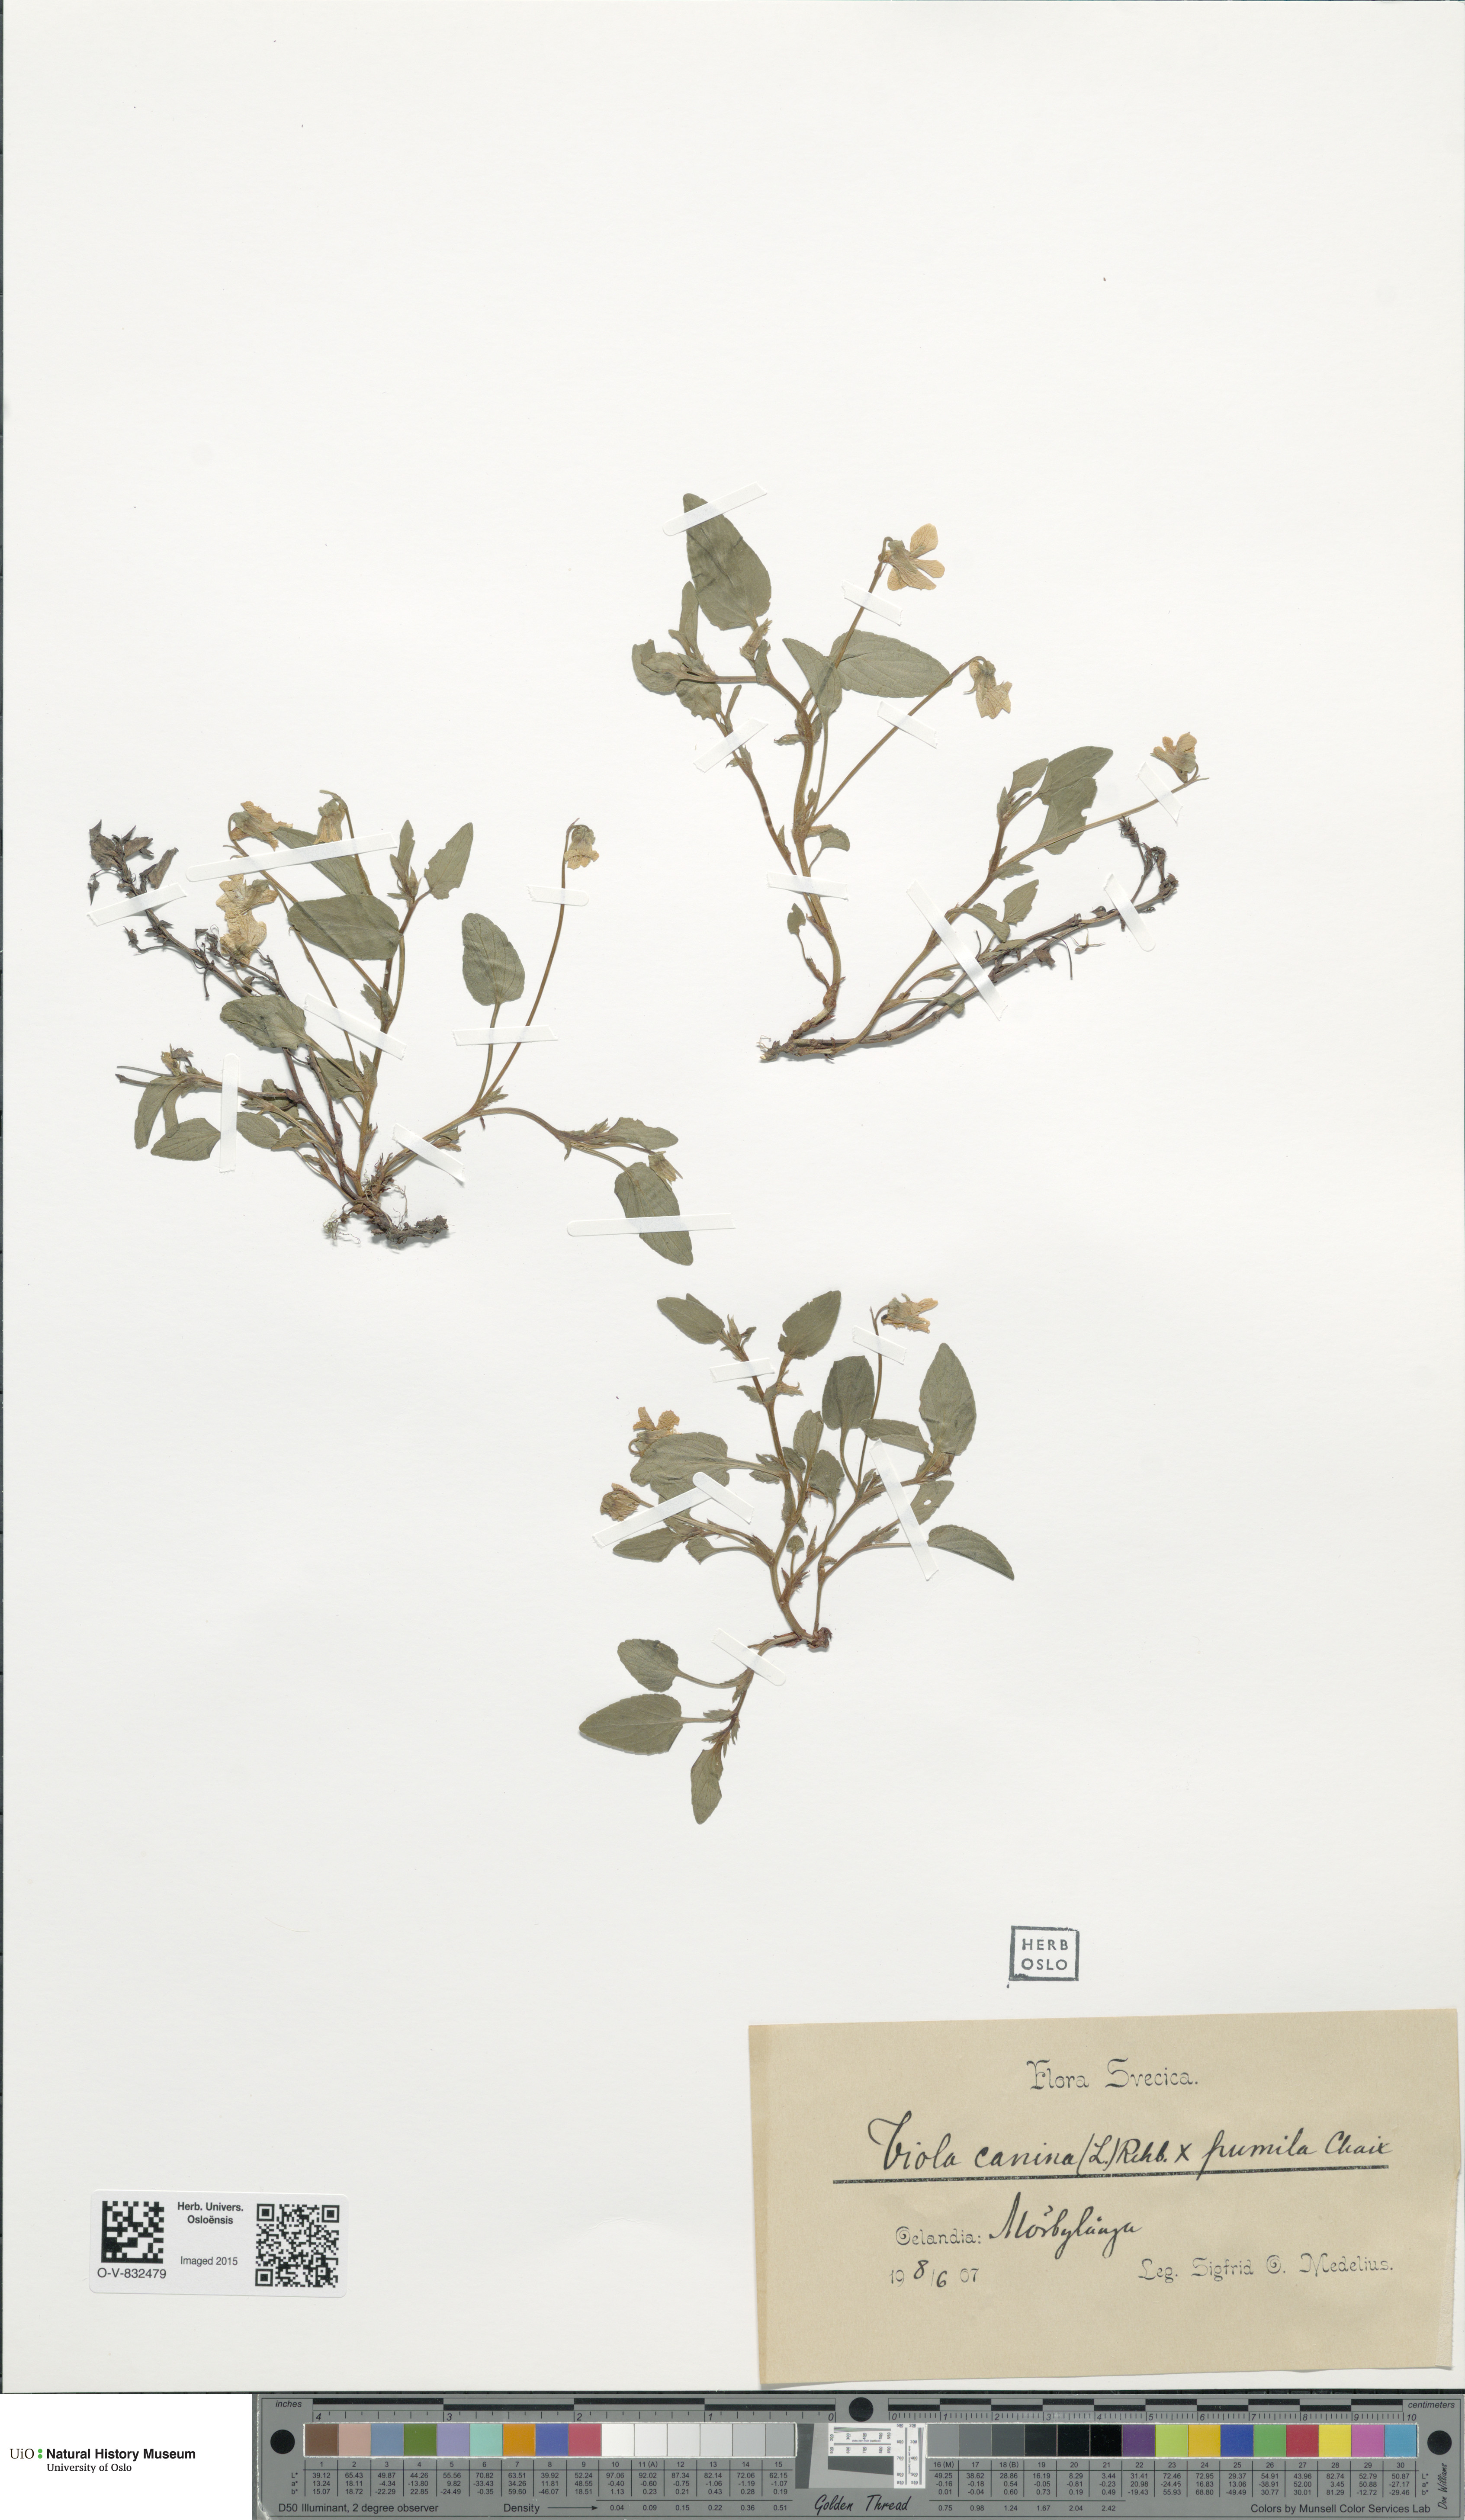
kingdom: Plantae
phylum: Tracheophyta
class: Magnoliopsida
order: Malpighiales
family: Violaceae
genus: Viola
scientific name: Viola
